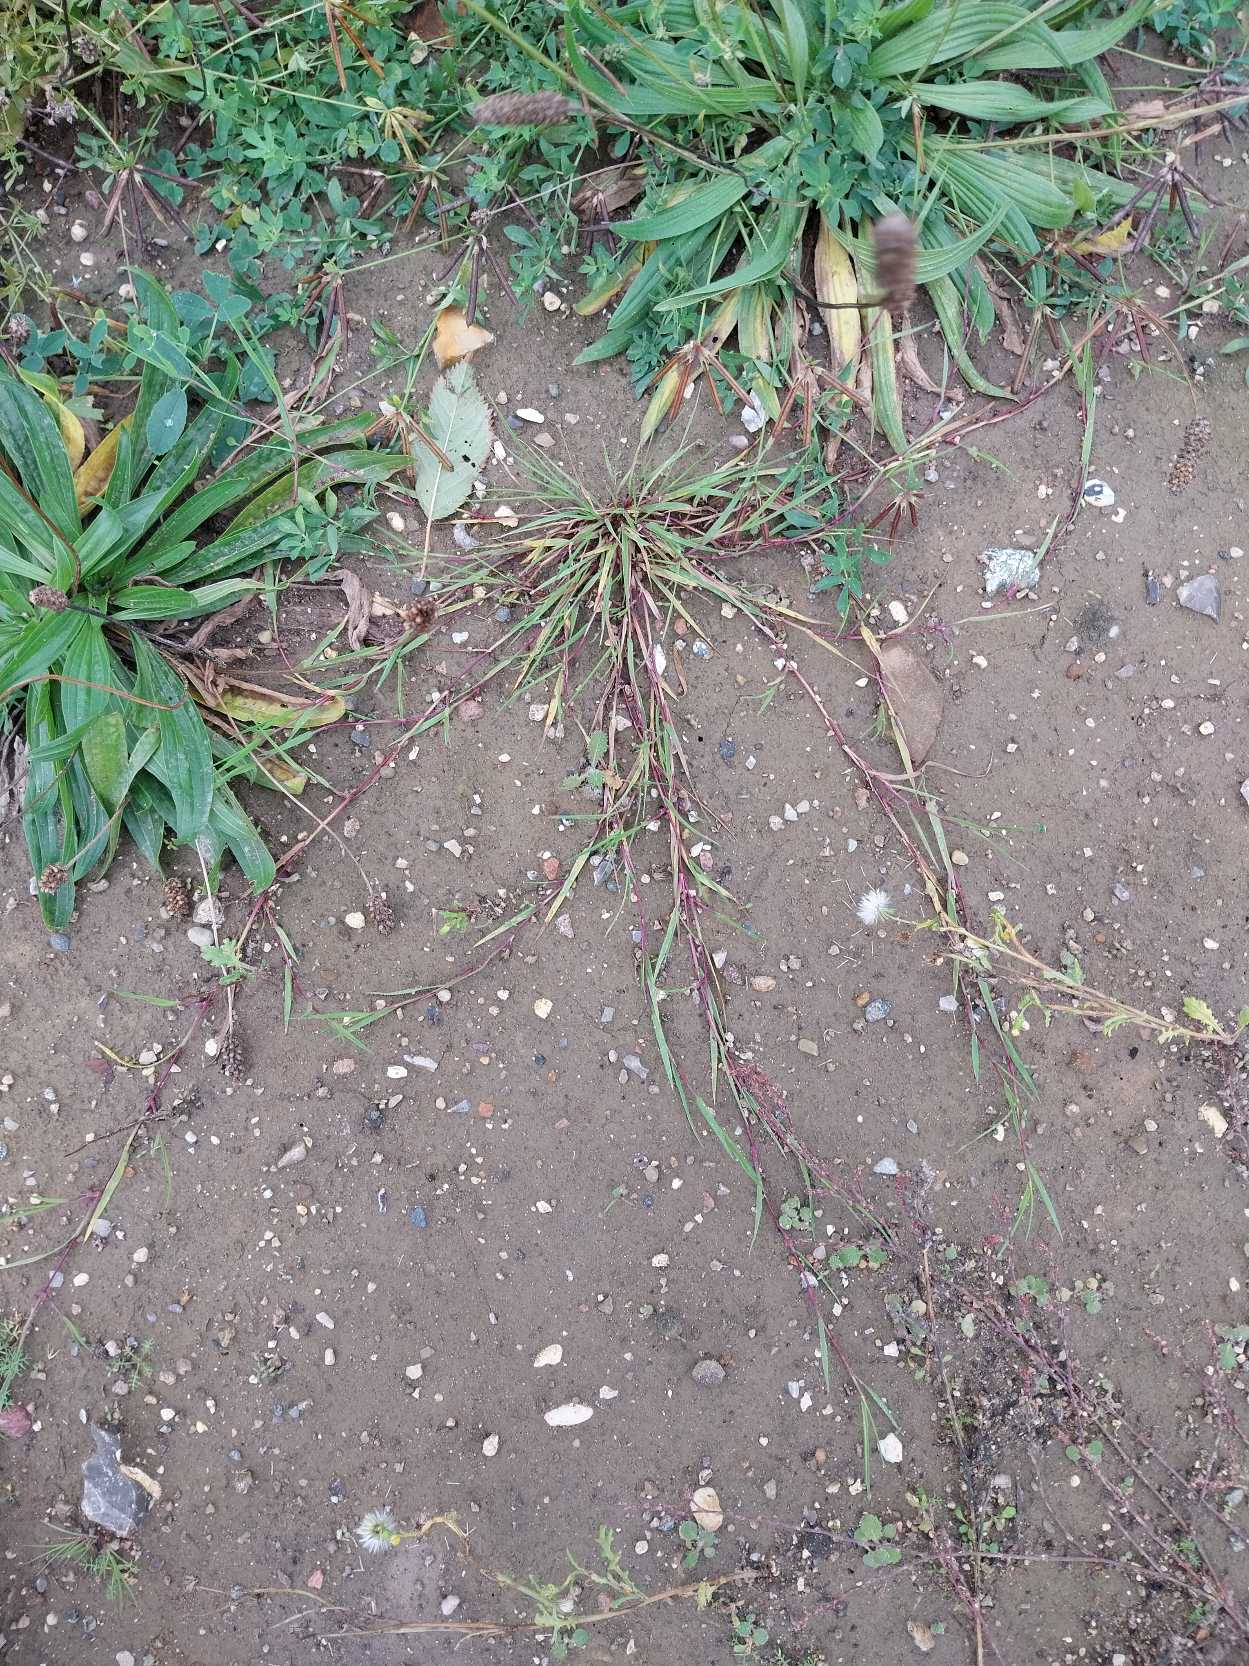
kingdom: Plantae
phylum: Tracheophyta
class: Liliopsida
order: Poales
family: Poaceae
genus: Agrostis
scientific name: Agrostis stolonifera
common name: Kryb-hvene
